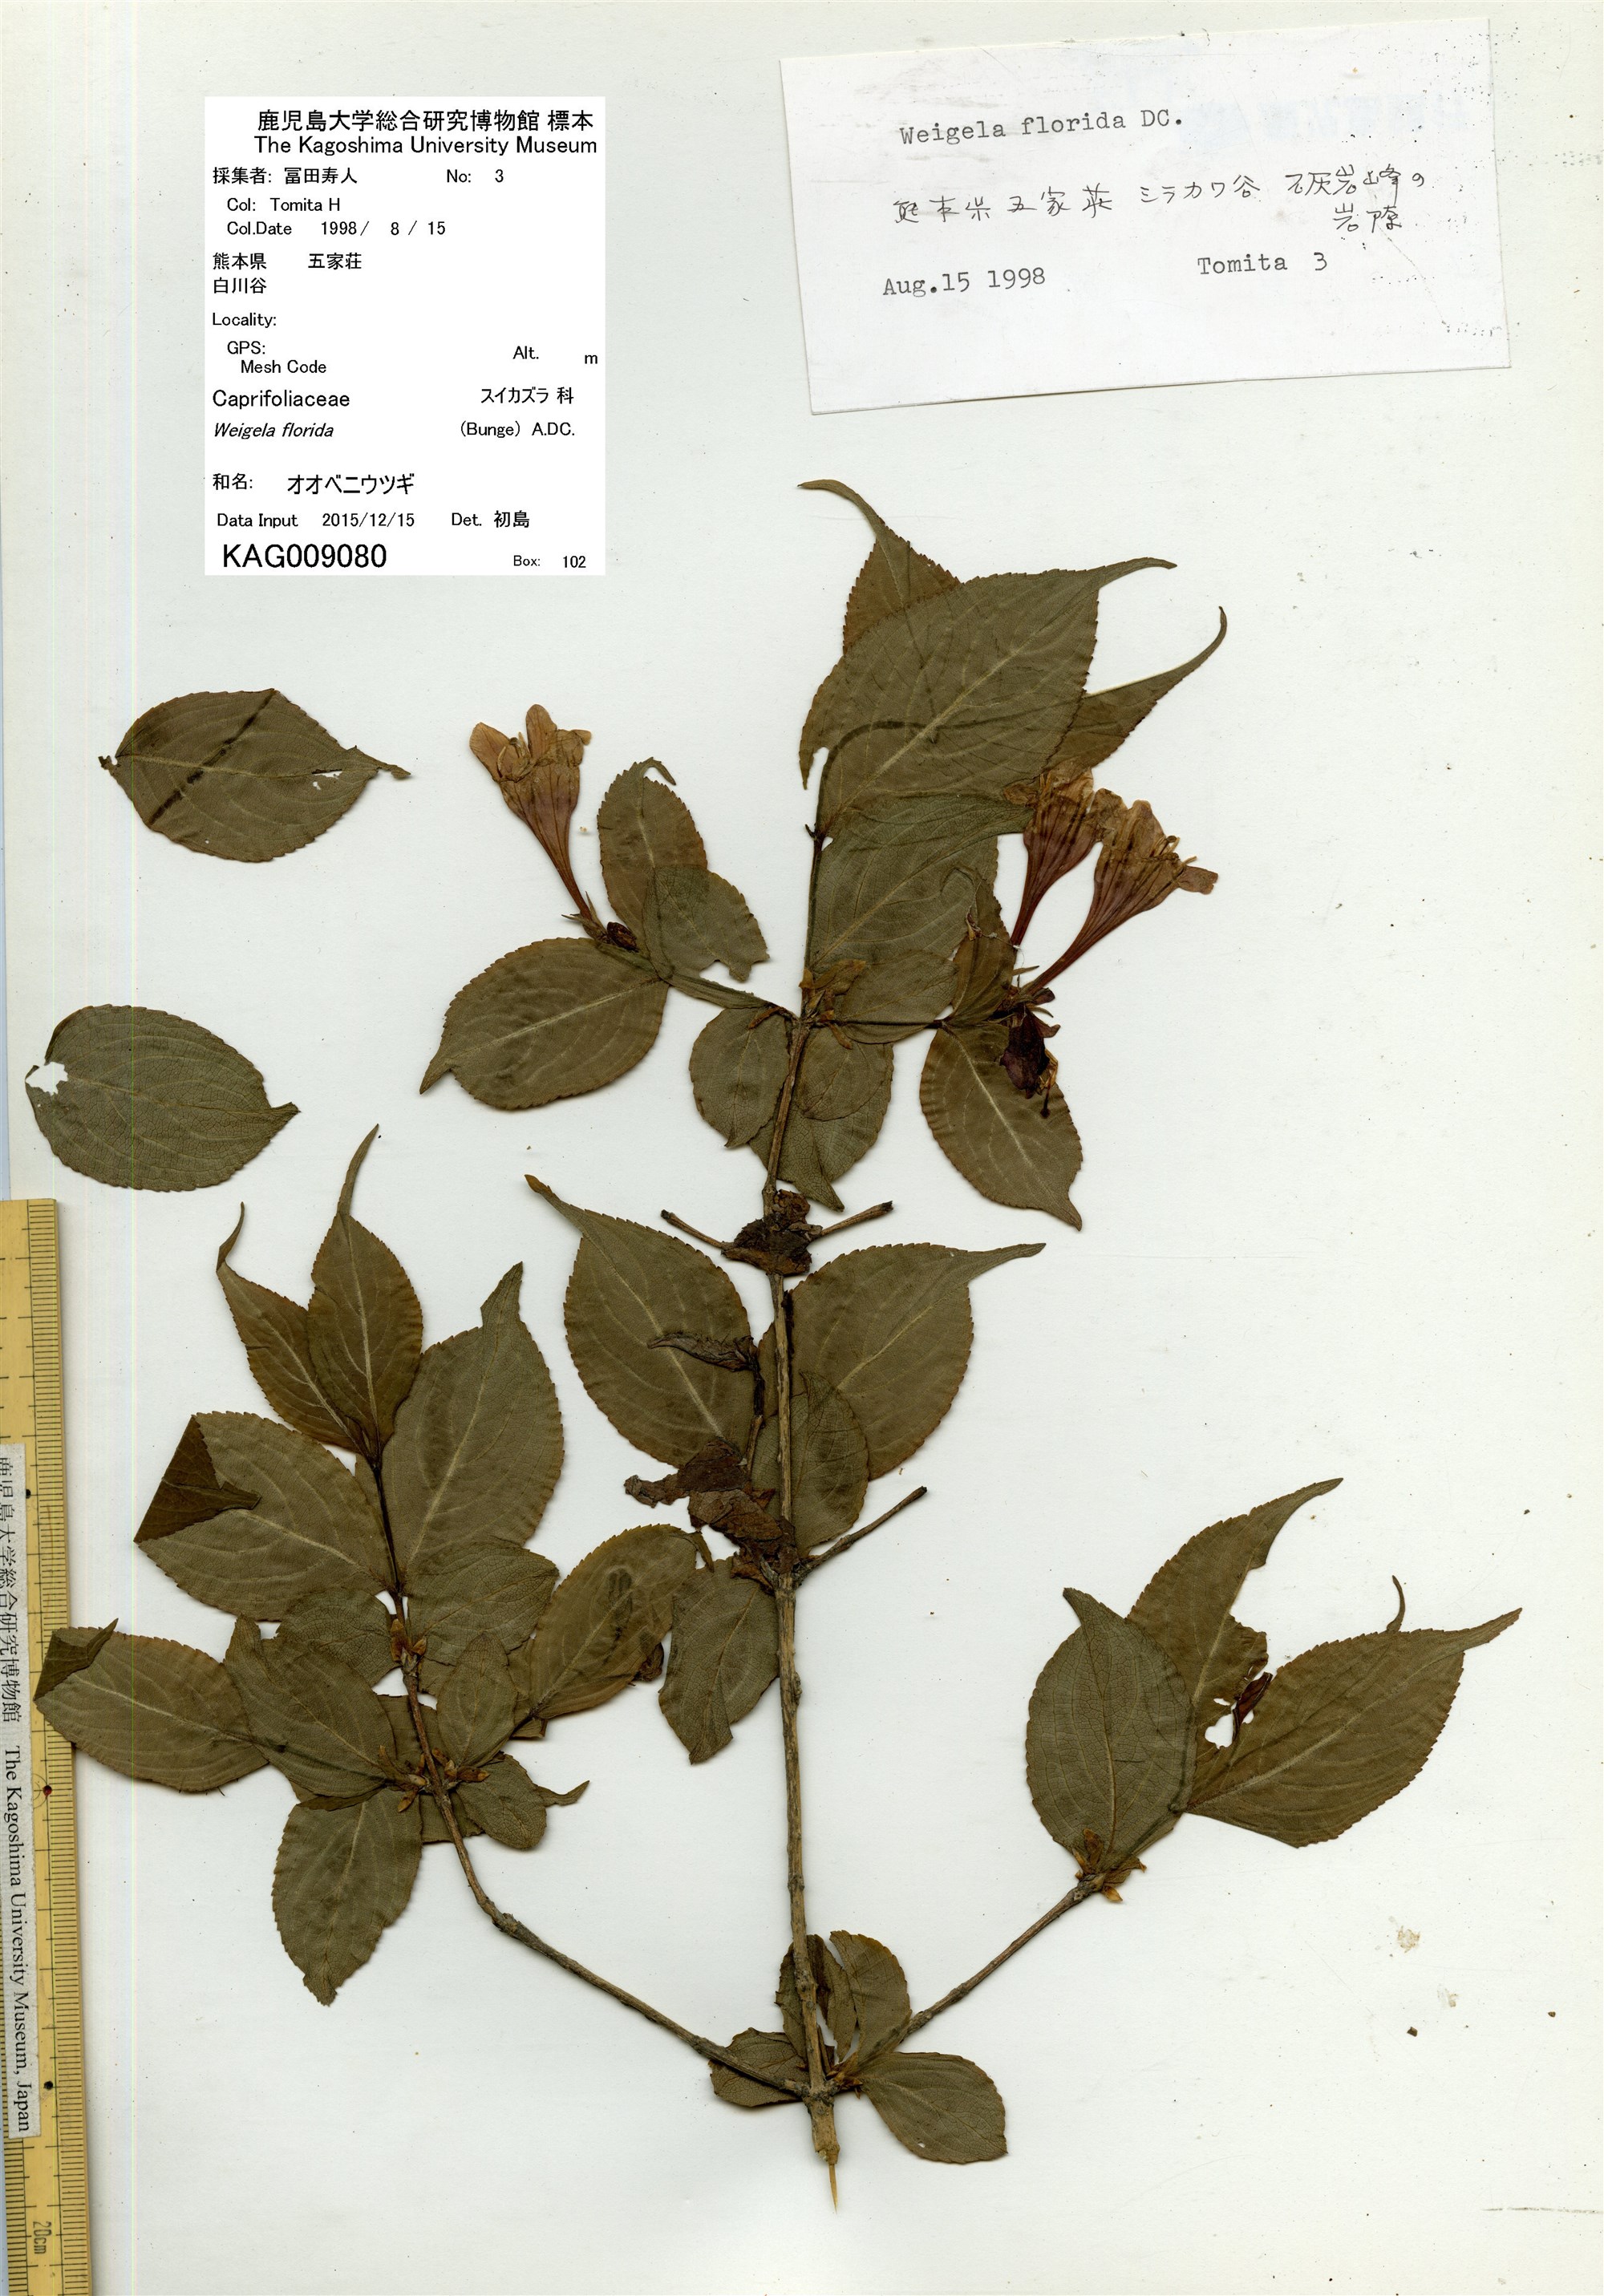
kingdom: Plantae
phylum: Tracheophyta
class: Magnoliopsida
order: Dipsacales
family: Caprifoliaceae
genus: Weigela
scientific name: Weigela florida
